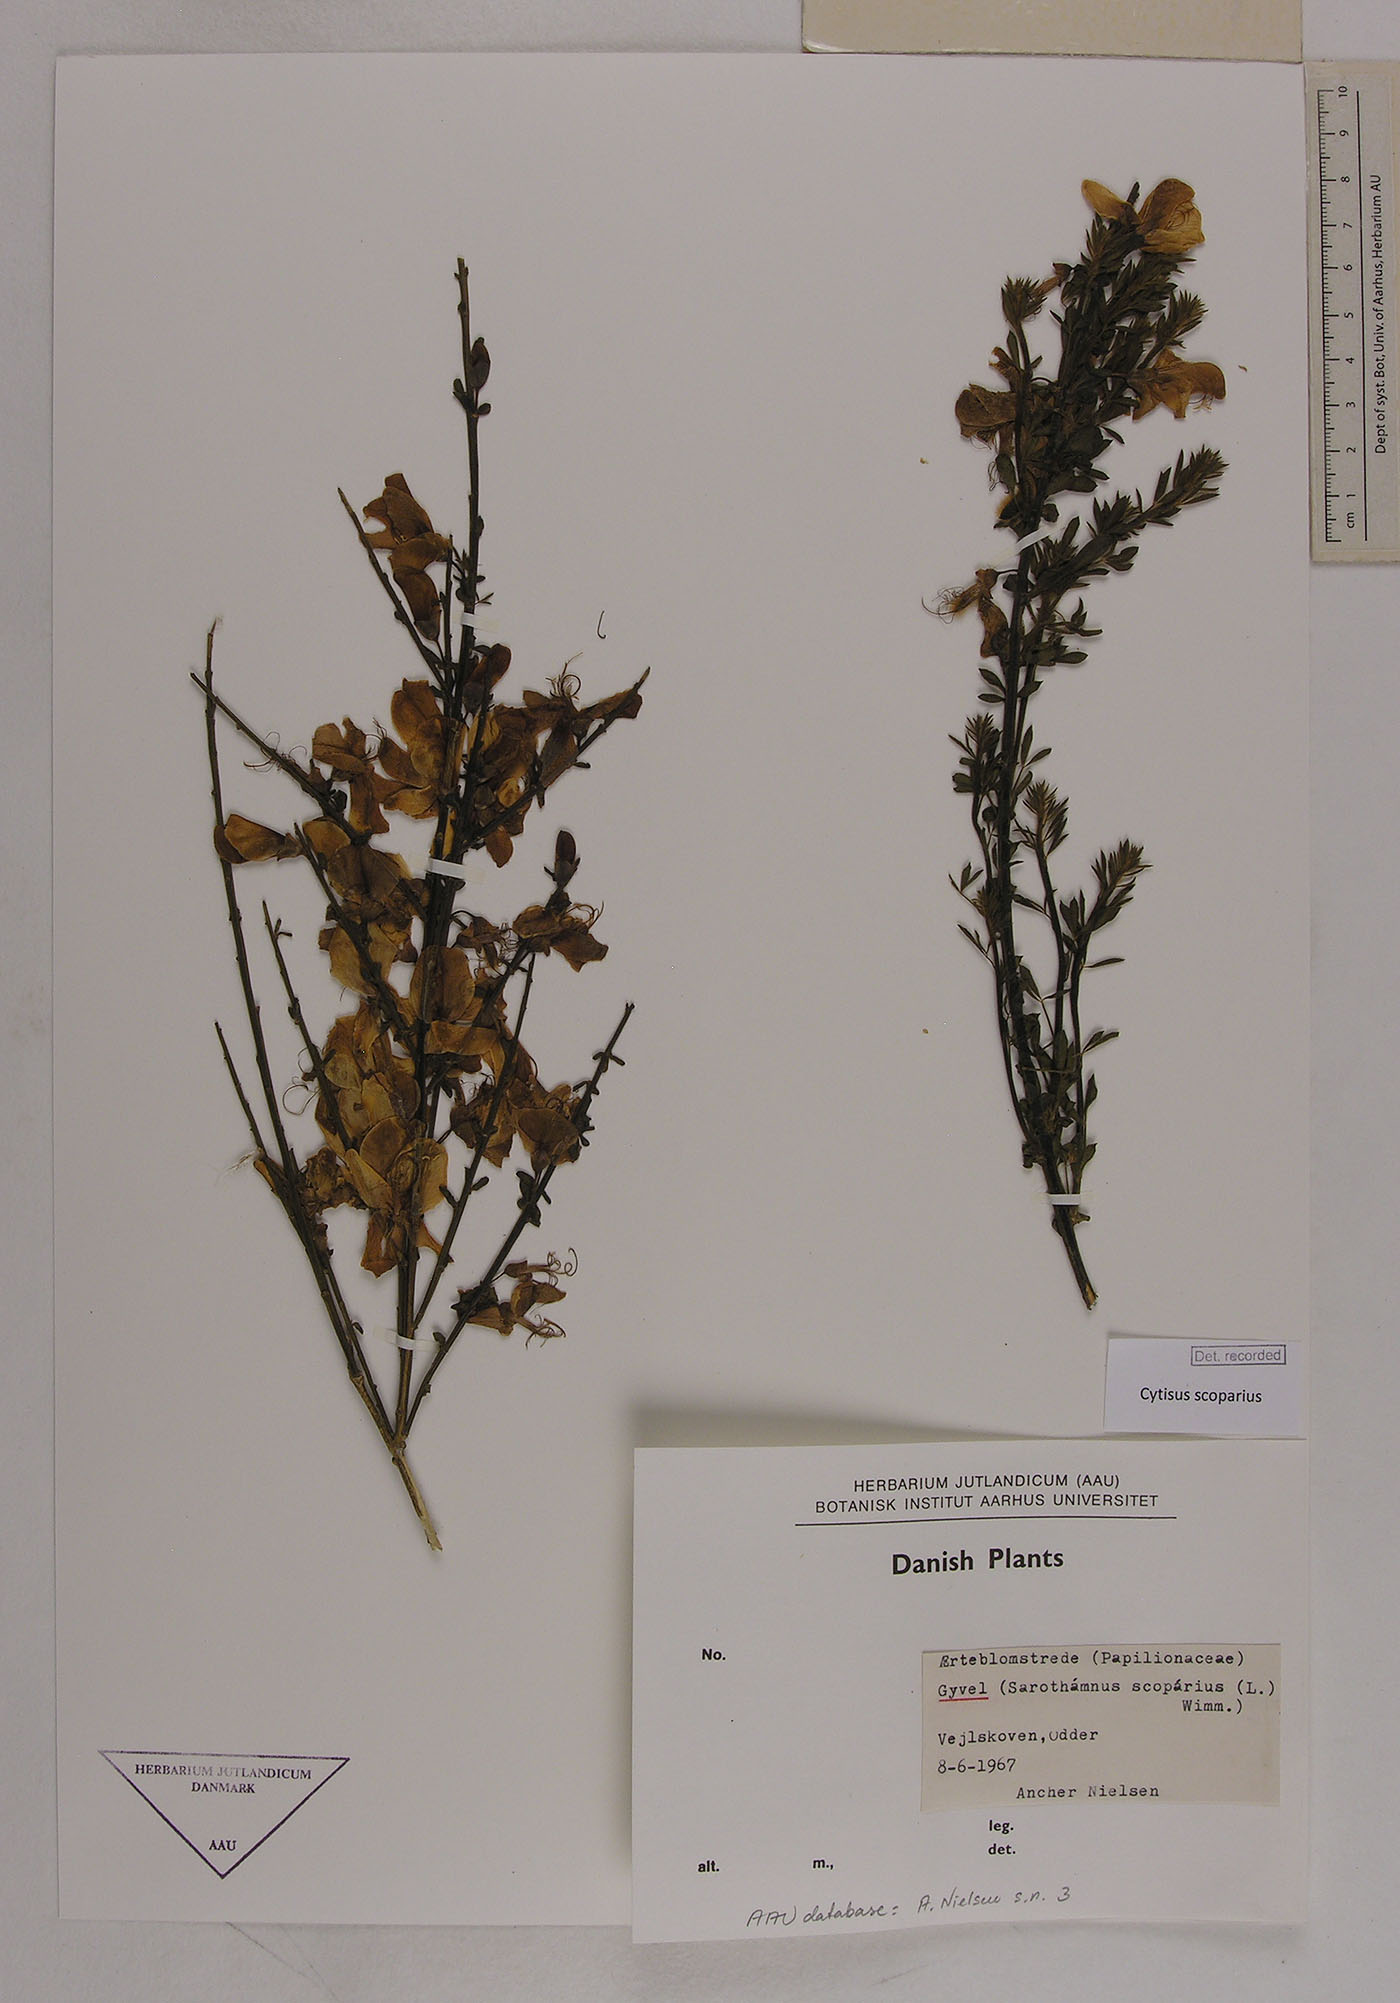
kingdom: Plantae
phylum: Tracheophyta
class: Magnoliopsida
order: Fabales
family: Fabaceae
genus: Cytisus
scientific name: Cytisus scoparius
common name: Scotch broom
